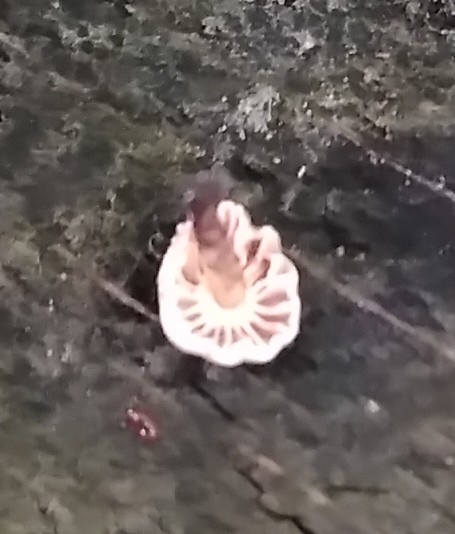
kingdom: Fungi
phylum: Basidiomycota
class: Agaricomycetes
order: Agaricales
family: Marasmiaceae
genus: Marasmius
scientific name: Marasmius rotula
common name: hjul-bruskhat
